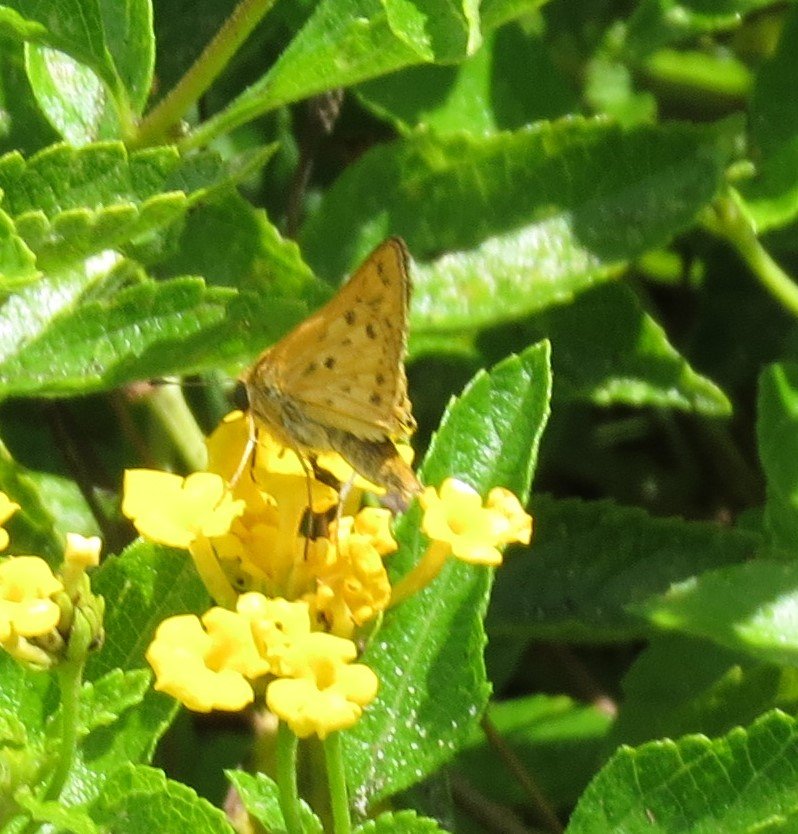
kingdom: Animalia
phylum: Arthropoda
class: Insecta
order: Lepidoptera
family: Hesperiidae
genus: Hylephila
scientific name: Hylephila phyleus
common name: Fiery Skipper
